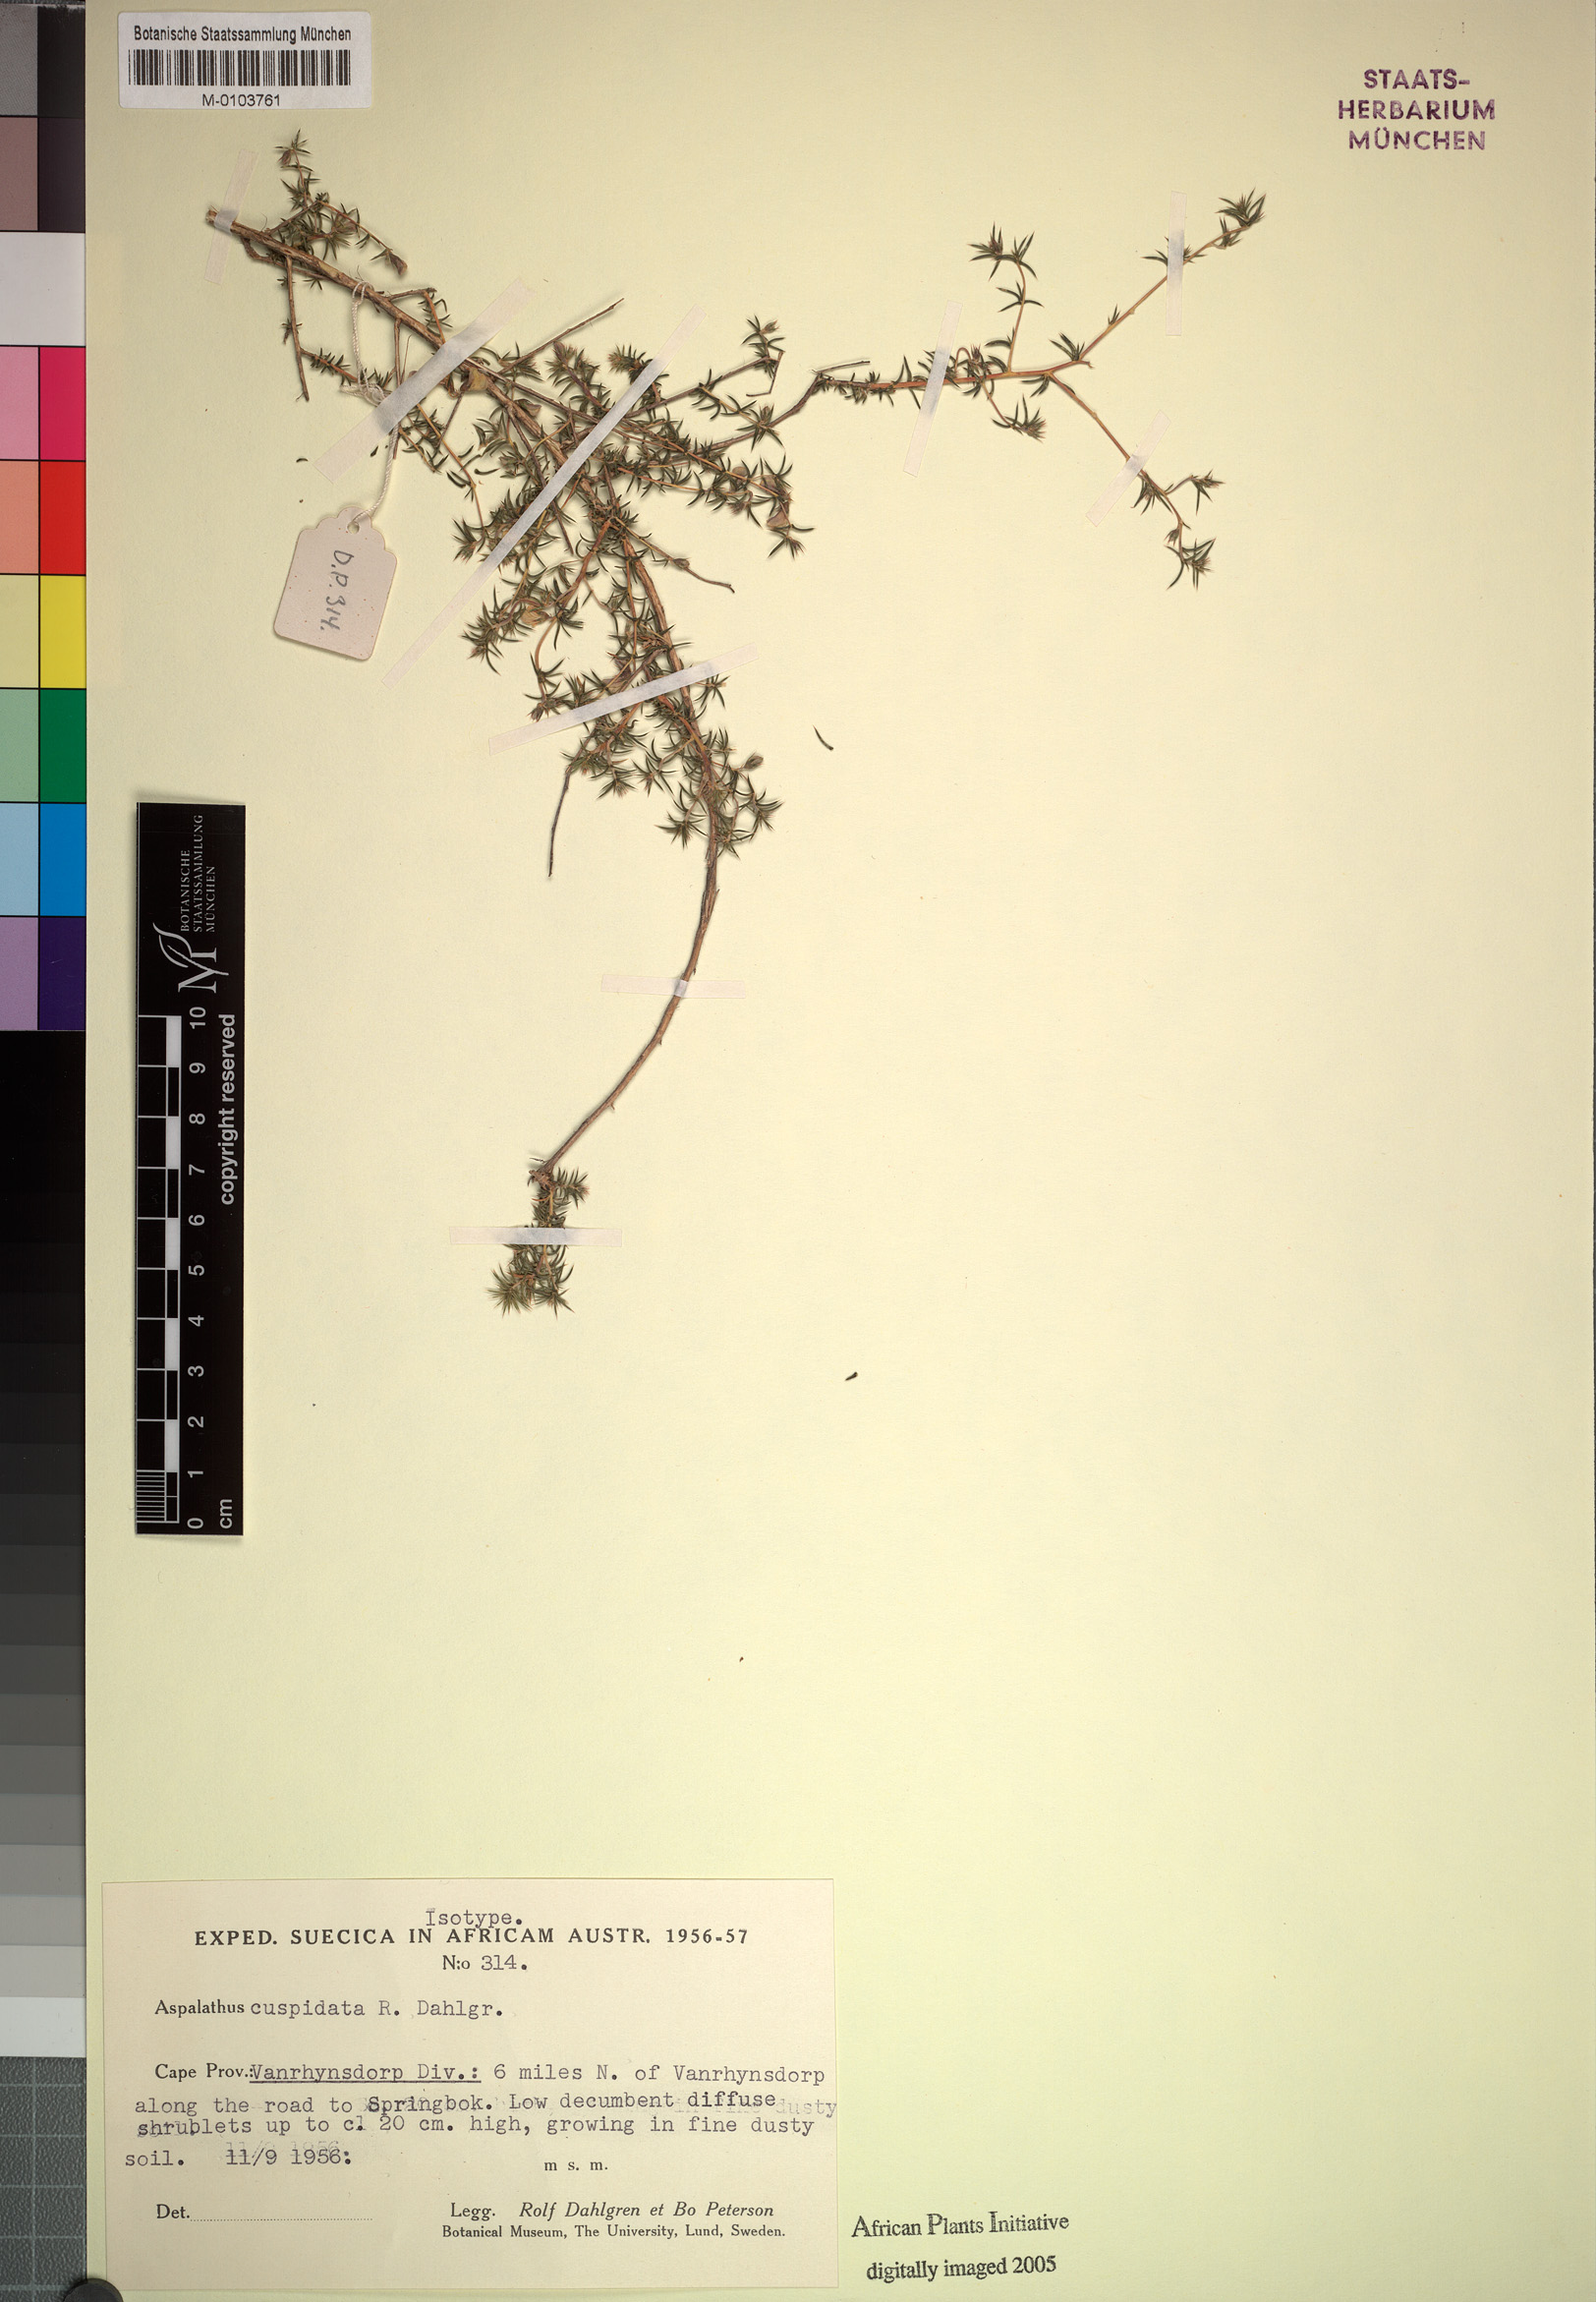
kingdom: Plantae
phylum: Tracheophyta
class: Magnoliopsida
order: Fabales
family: Fabaceae
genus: Aspalathus
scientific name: Aspalathus cuspidata
